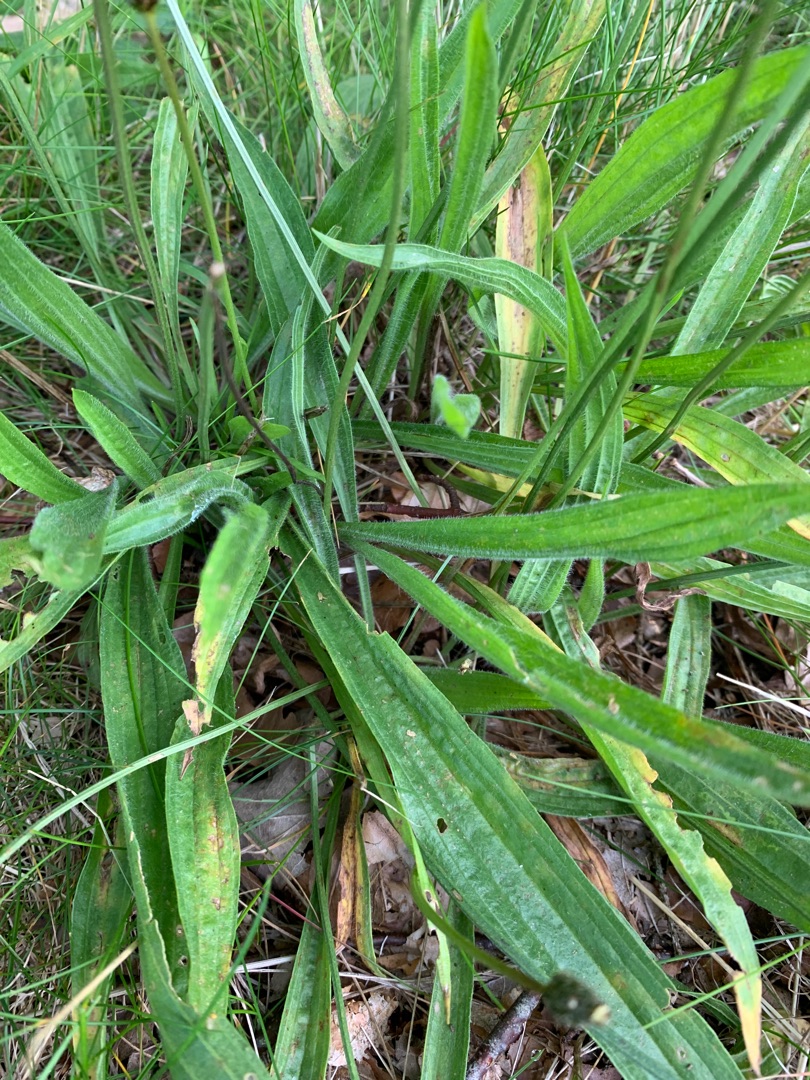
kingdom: Plantae
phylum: Tracheophyta
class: Magnoliopsida
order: Lamiales
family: Plantaginaceae
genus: Plantago
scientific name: Plantago lanceolata
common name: Lancet-vejbred
